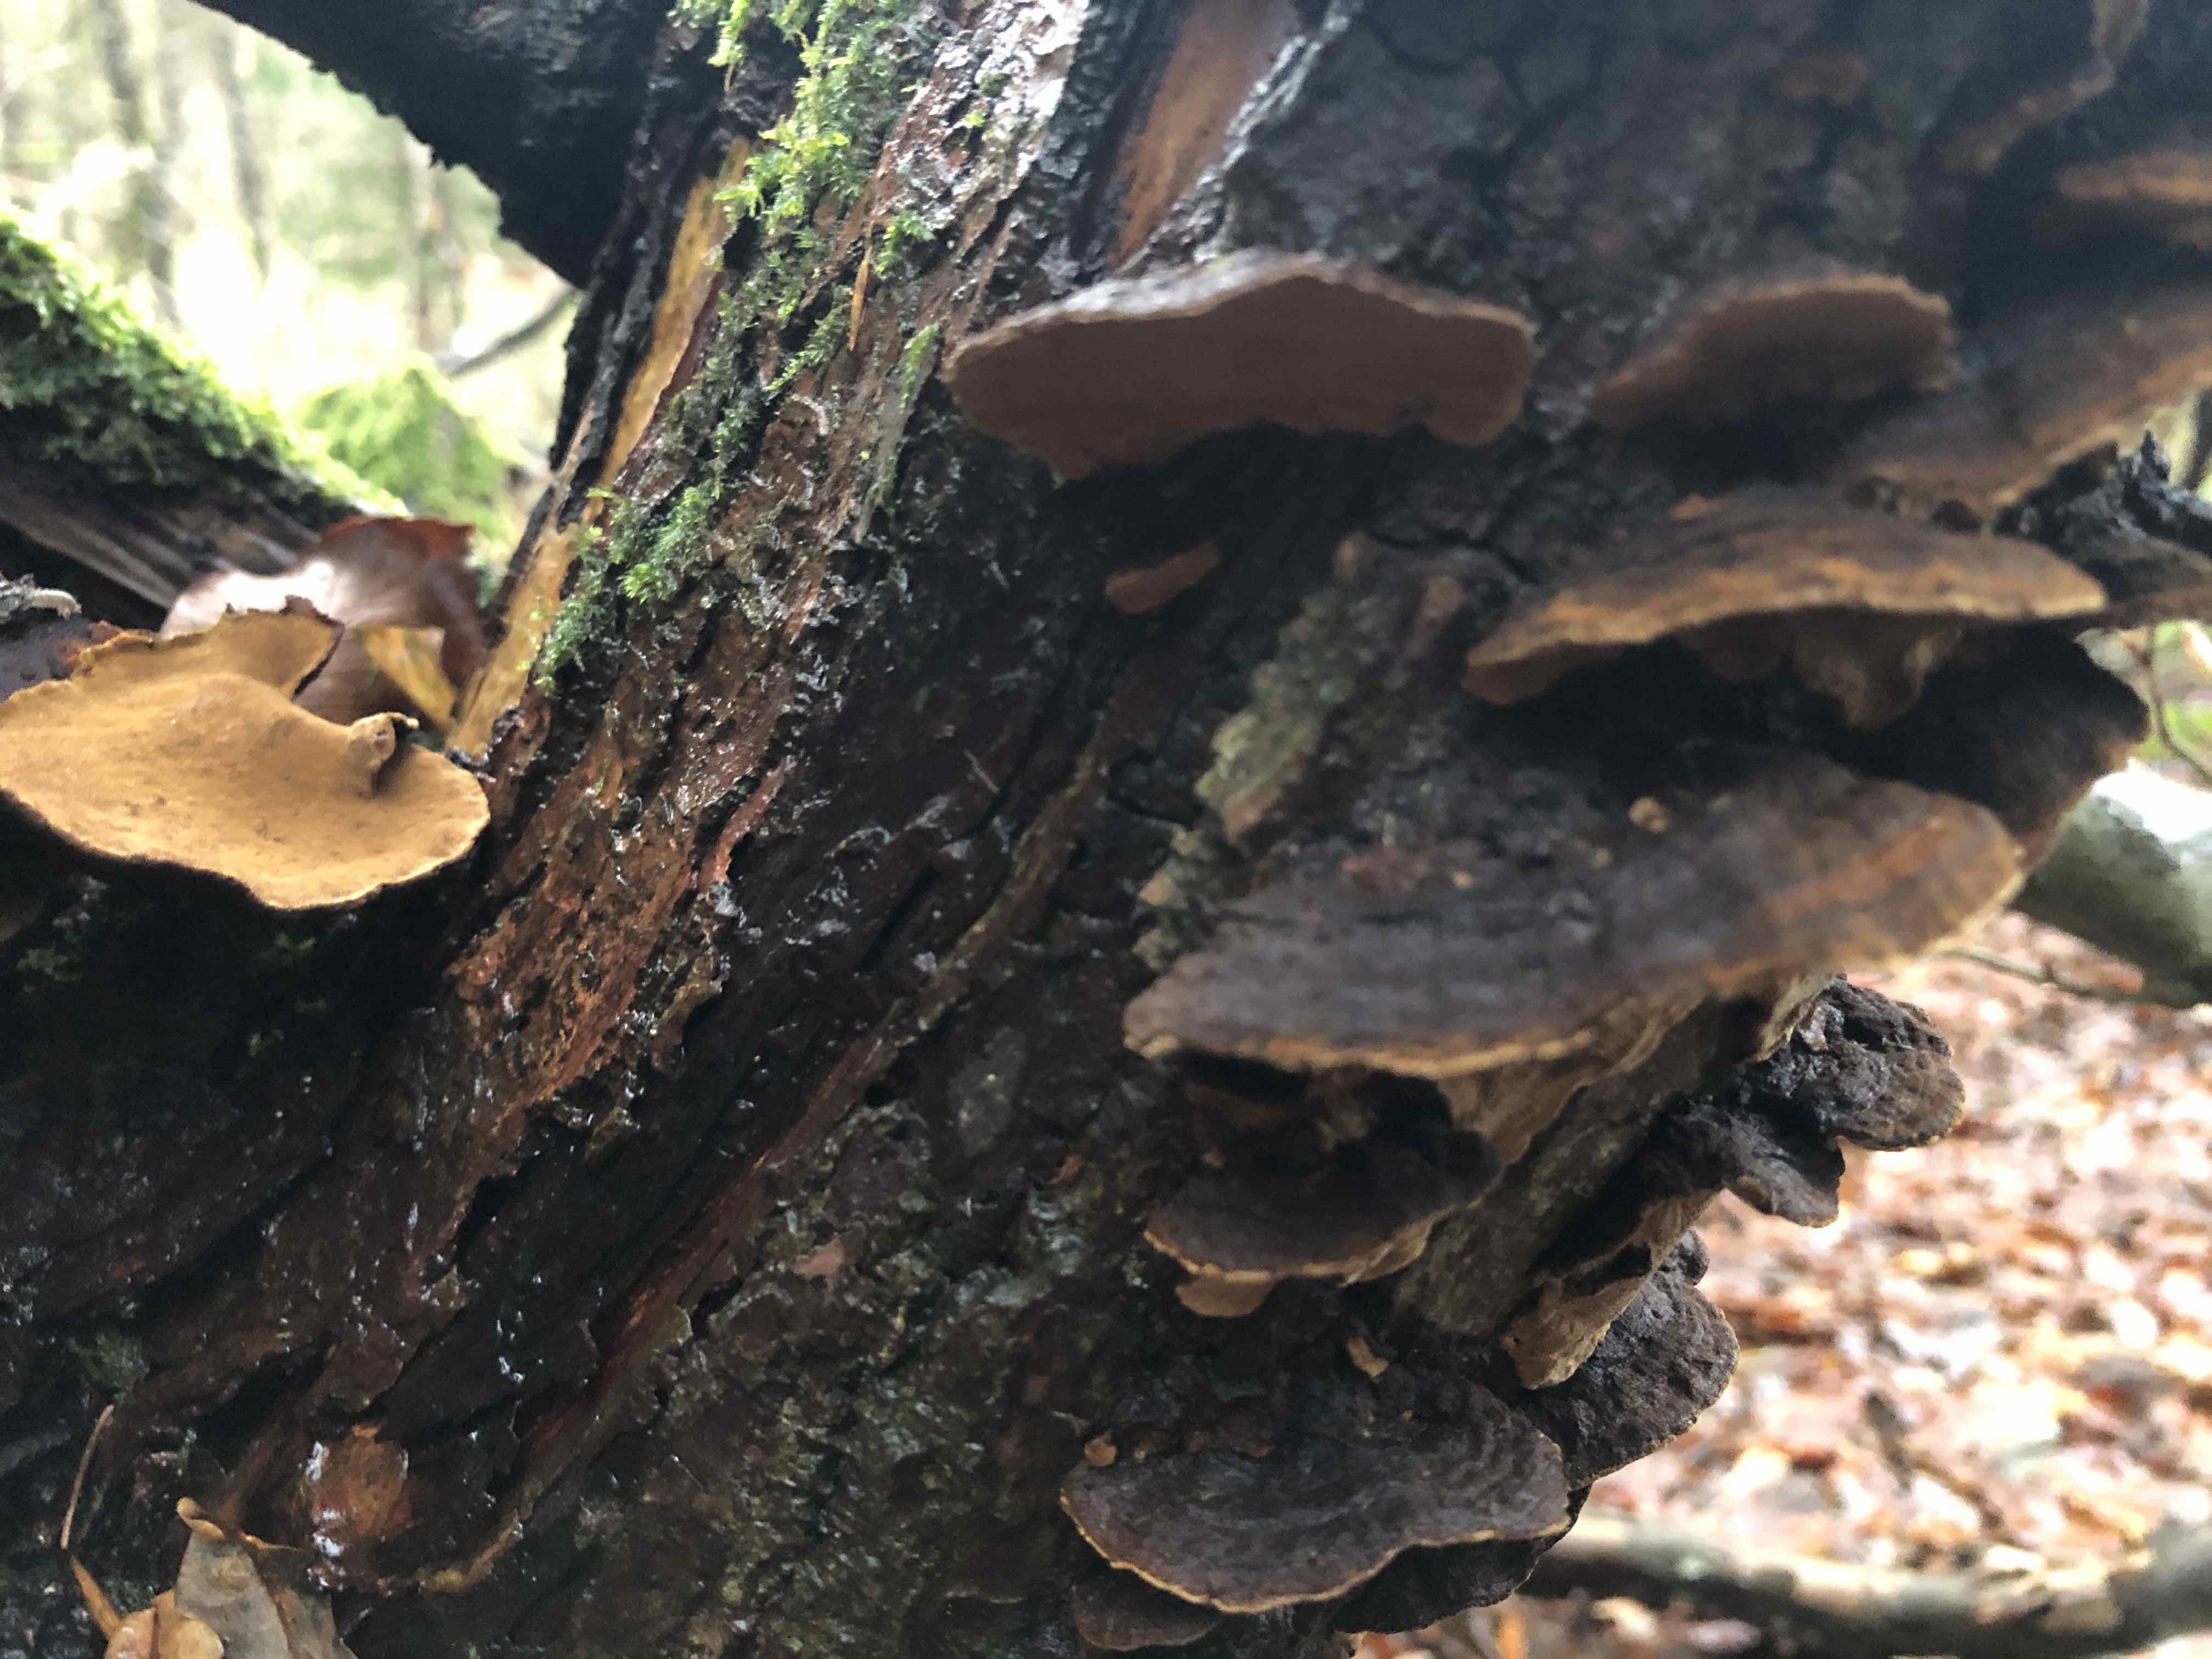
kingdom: Fungi
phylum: Basidiomycota
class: Agaricomycetes
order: Hymenochaetales
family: Hymenochaetaceae
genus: Phellinopsis
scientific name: Phellinopsis conchata
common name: pile-ildporesvamp
